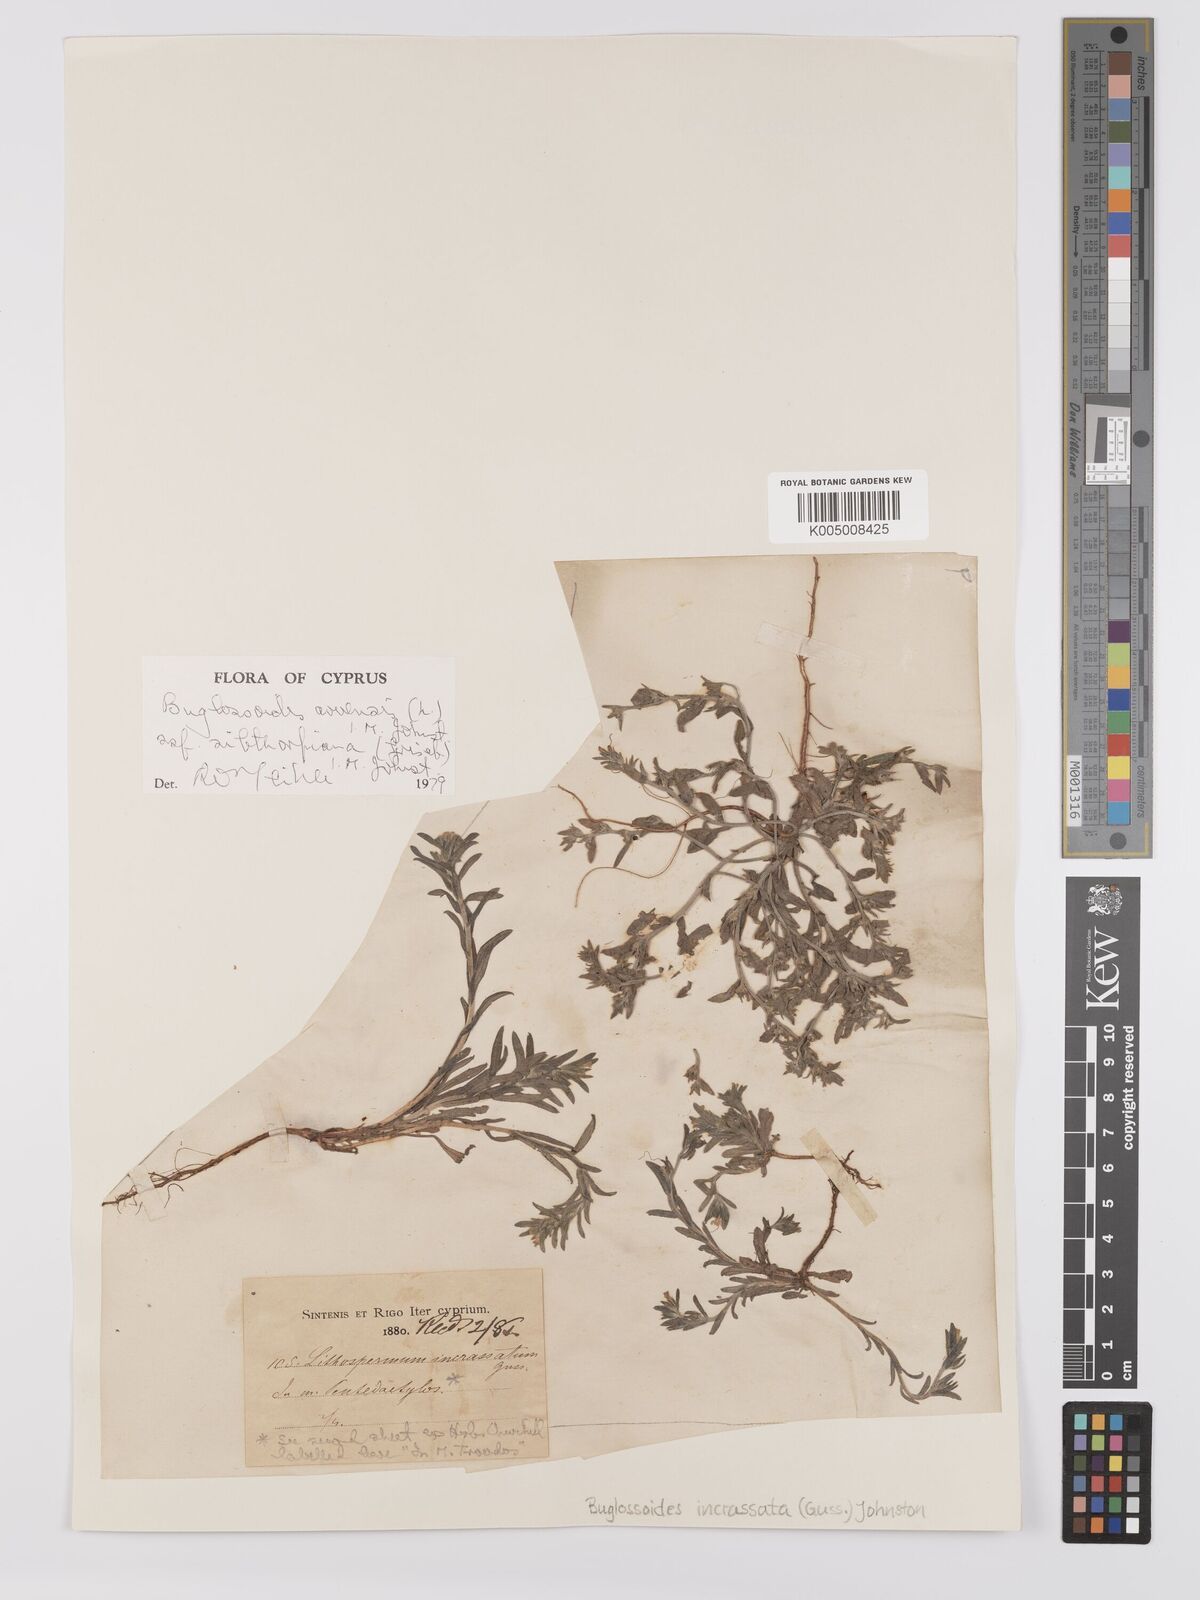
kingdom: Plantae
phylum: Tracheophyta
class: Magnoliopsida
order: Boraginales
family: Boraginaceae
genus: Buglossoides
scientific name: Buglossoides
